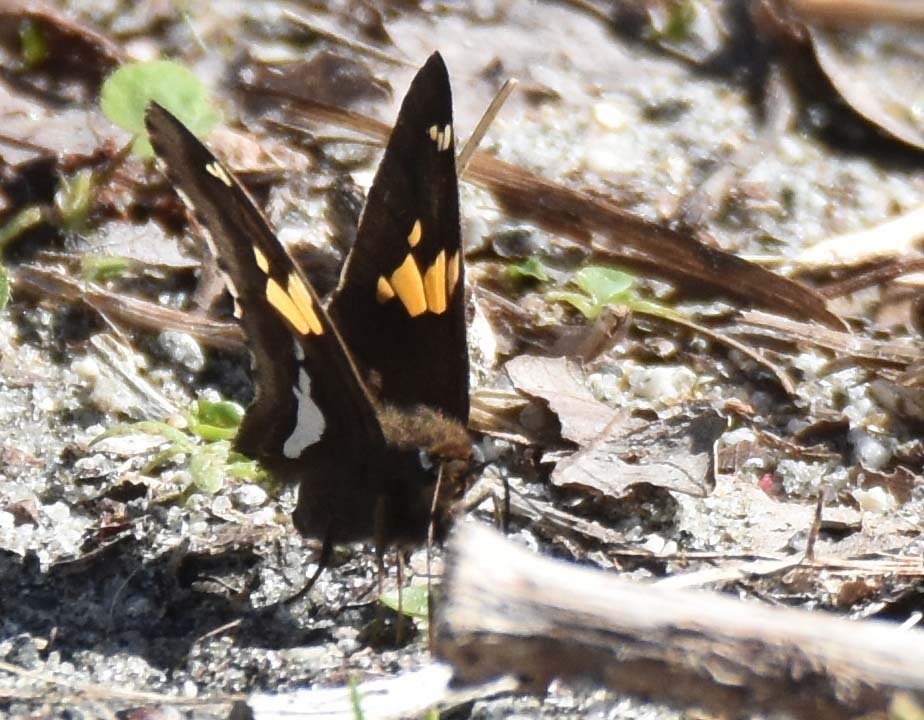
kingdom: Animalia
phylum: Arthropoda
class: Insecta
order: Lepidoptera
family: Hesperiidae
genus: Epargyreus
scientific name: Epargyreus clarus
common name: Silver-spotted Skipper
